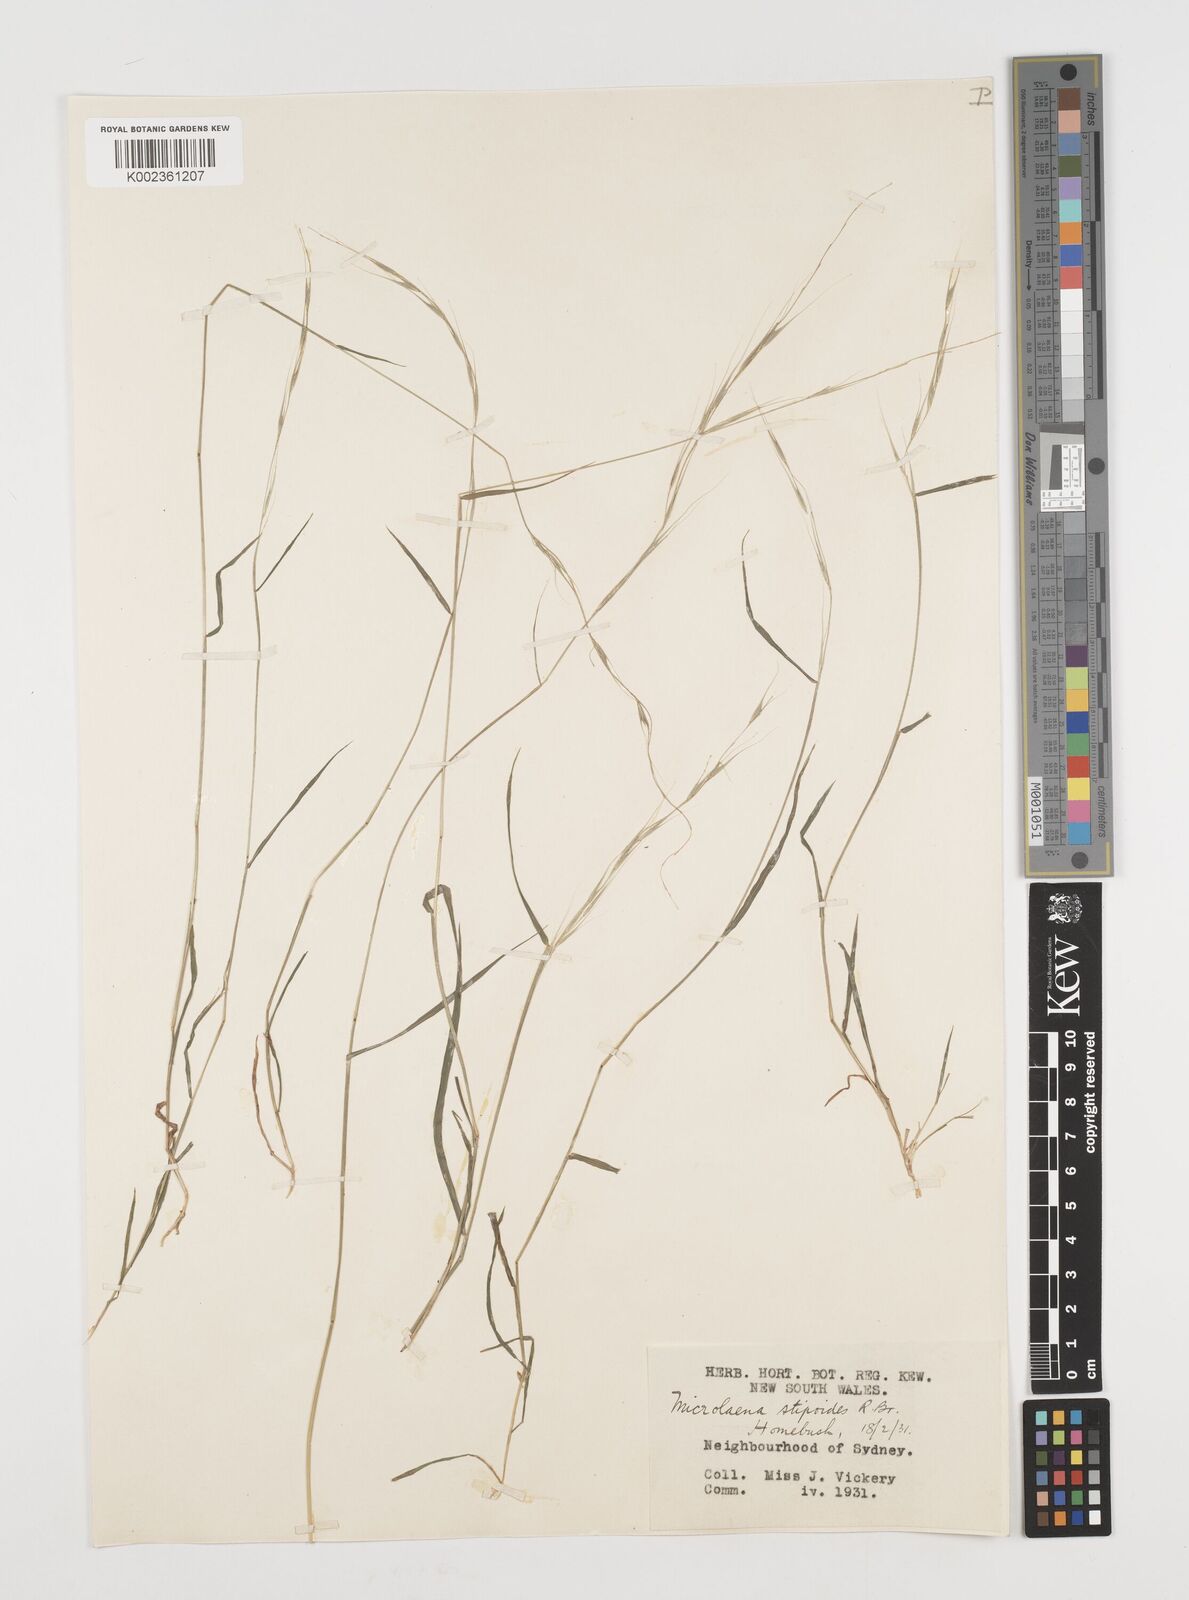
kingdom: Plantae
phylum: Tracheophyta
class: Liliopsida
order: Poales
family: Poaceae
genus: Microlaena
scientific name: Microlaena stipoides
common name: Meadow ricegrass
